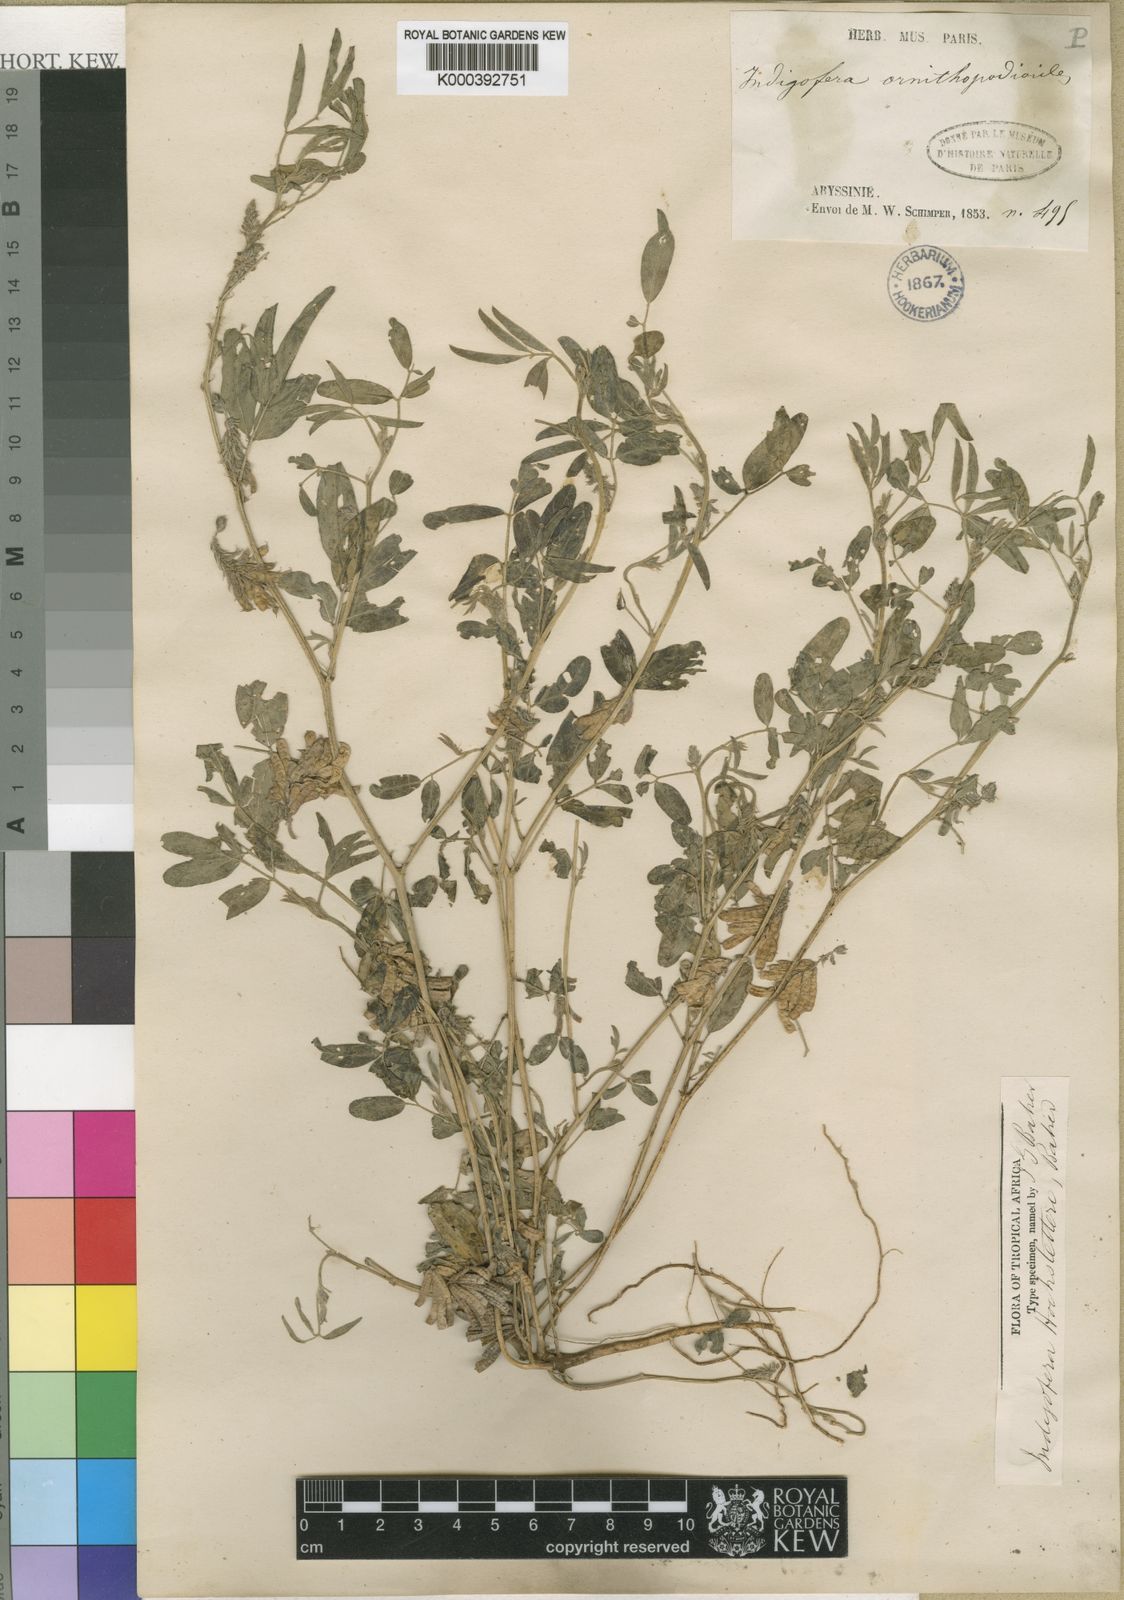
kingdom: Plantae
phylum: Tracheophyta
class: Magnoliopsida
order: Fabales
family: Fabaceae
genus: Indigofera
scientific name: Indigofera hochstetteri
